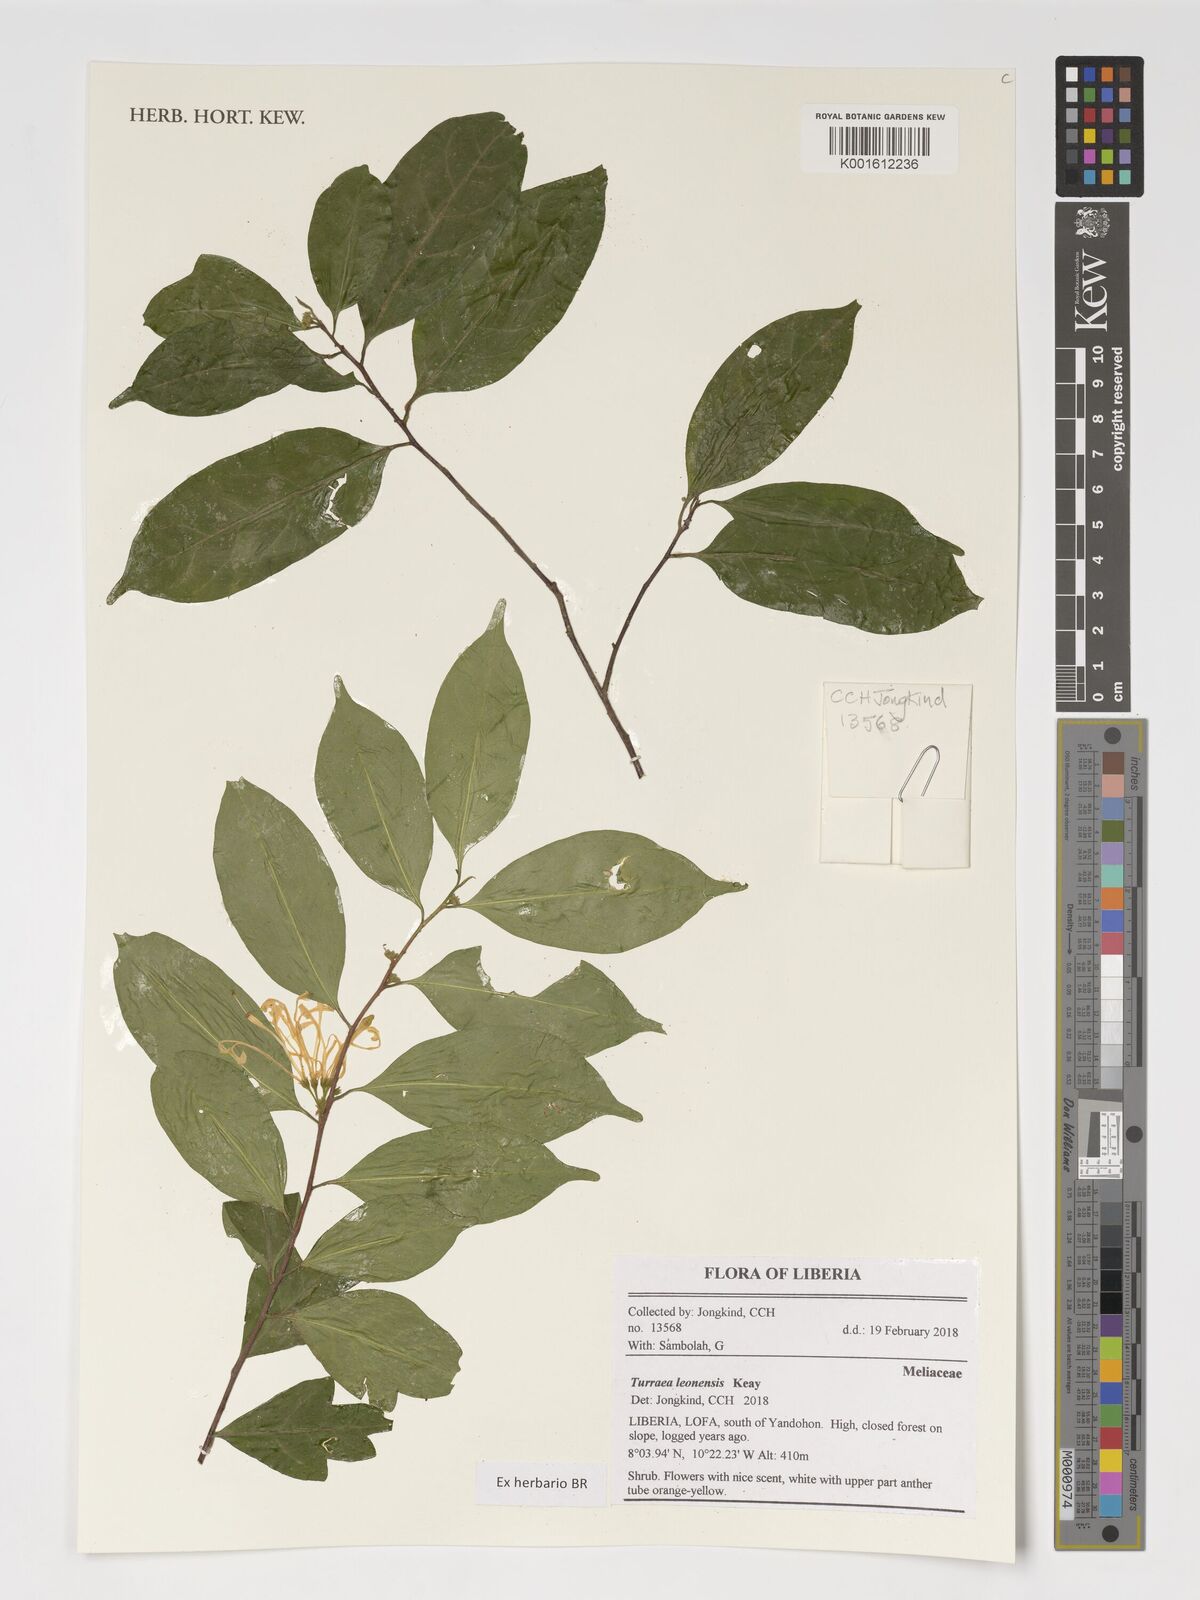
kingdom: Plantae
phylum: Tracheophyta
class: Magnoliopsida
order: Sapindales
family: Meliaceae
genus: Turraea
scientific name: Turraea leonensis
